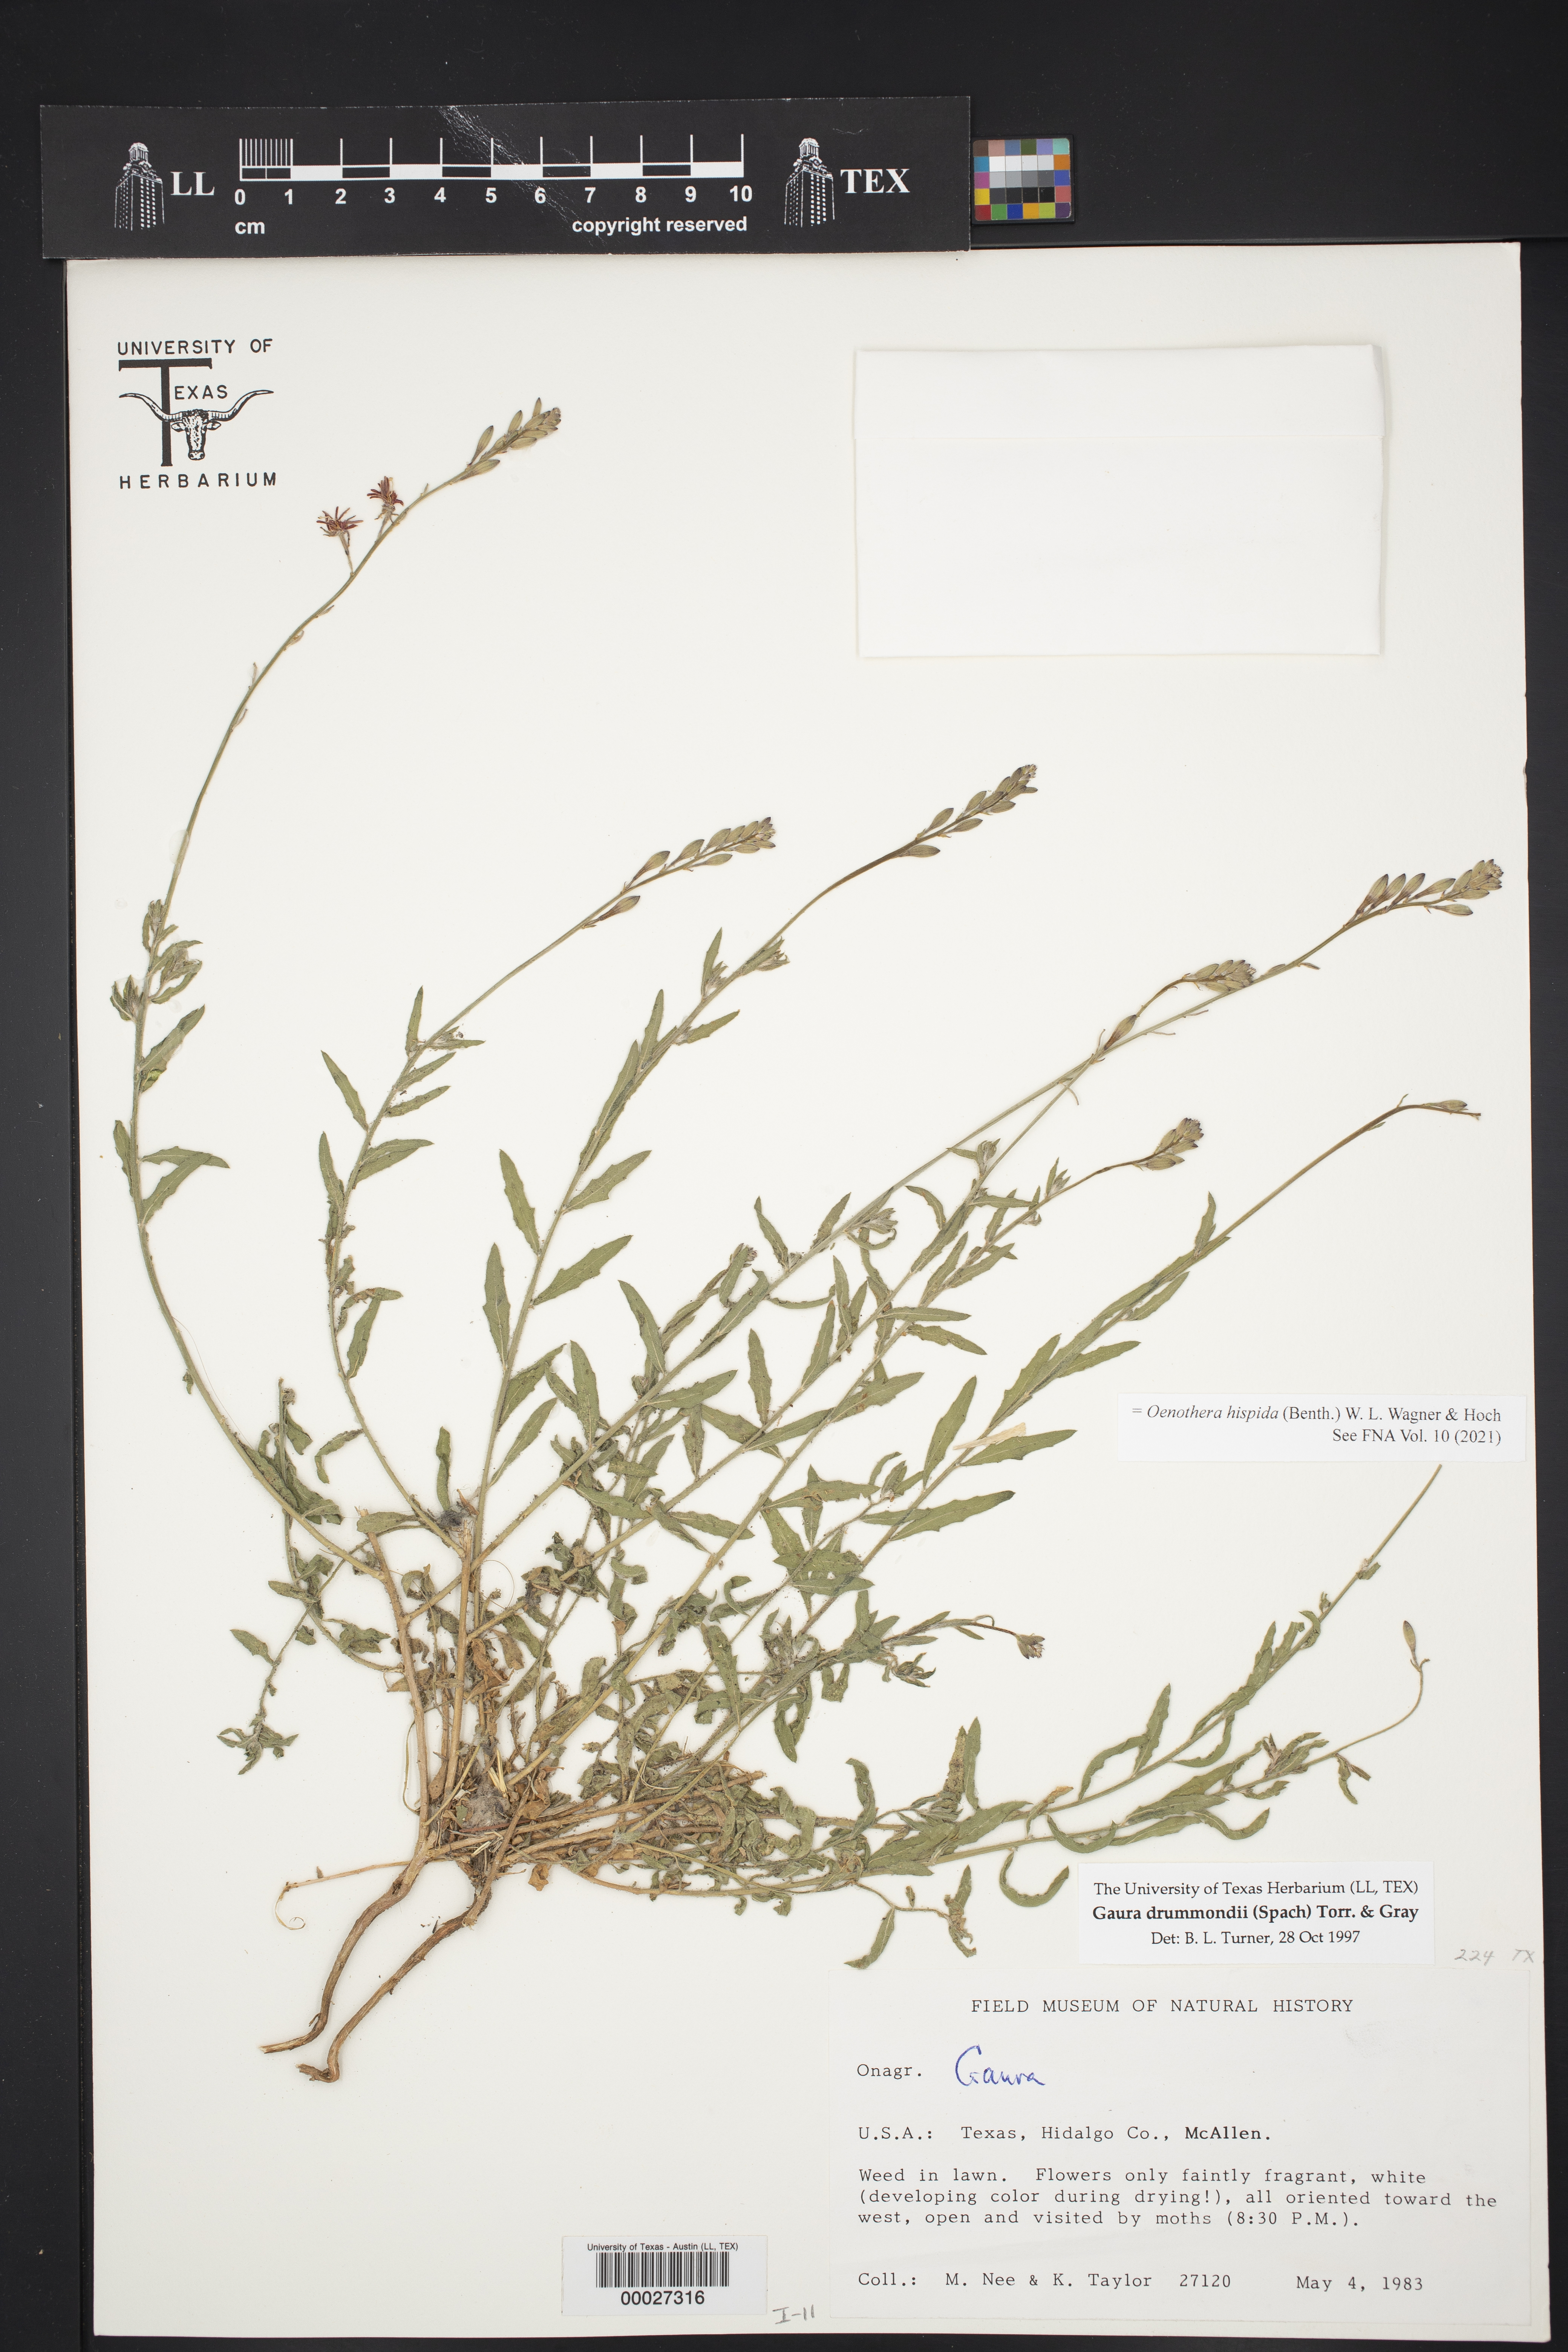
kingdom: Plantae
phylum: Tracheophyta
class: Magnoliopsida
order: Myrtales
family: Onagraceae
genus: Oenothera
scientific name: Oenothera hispida
